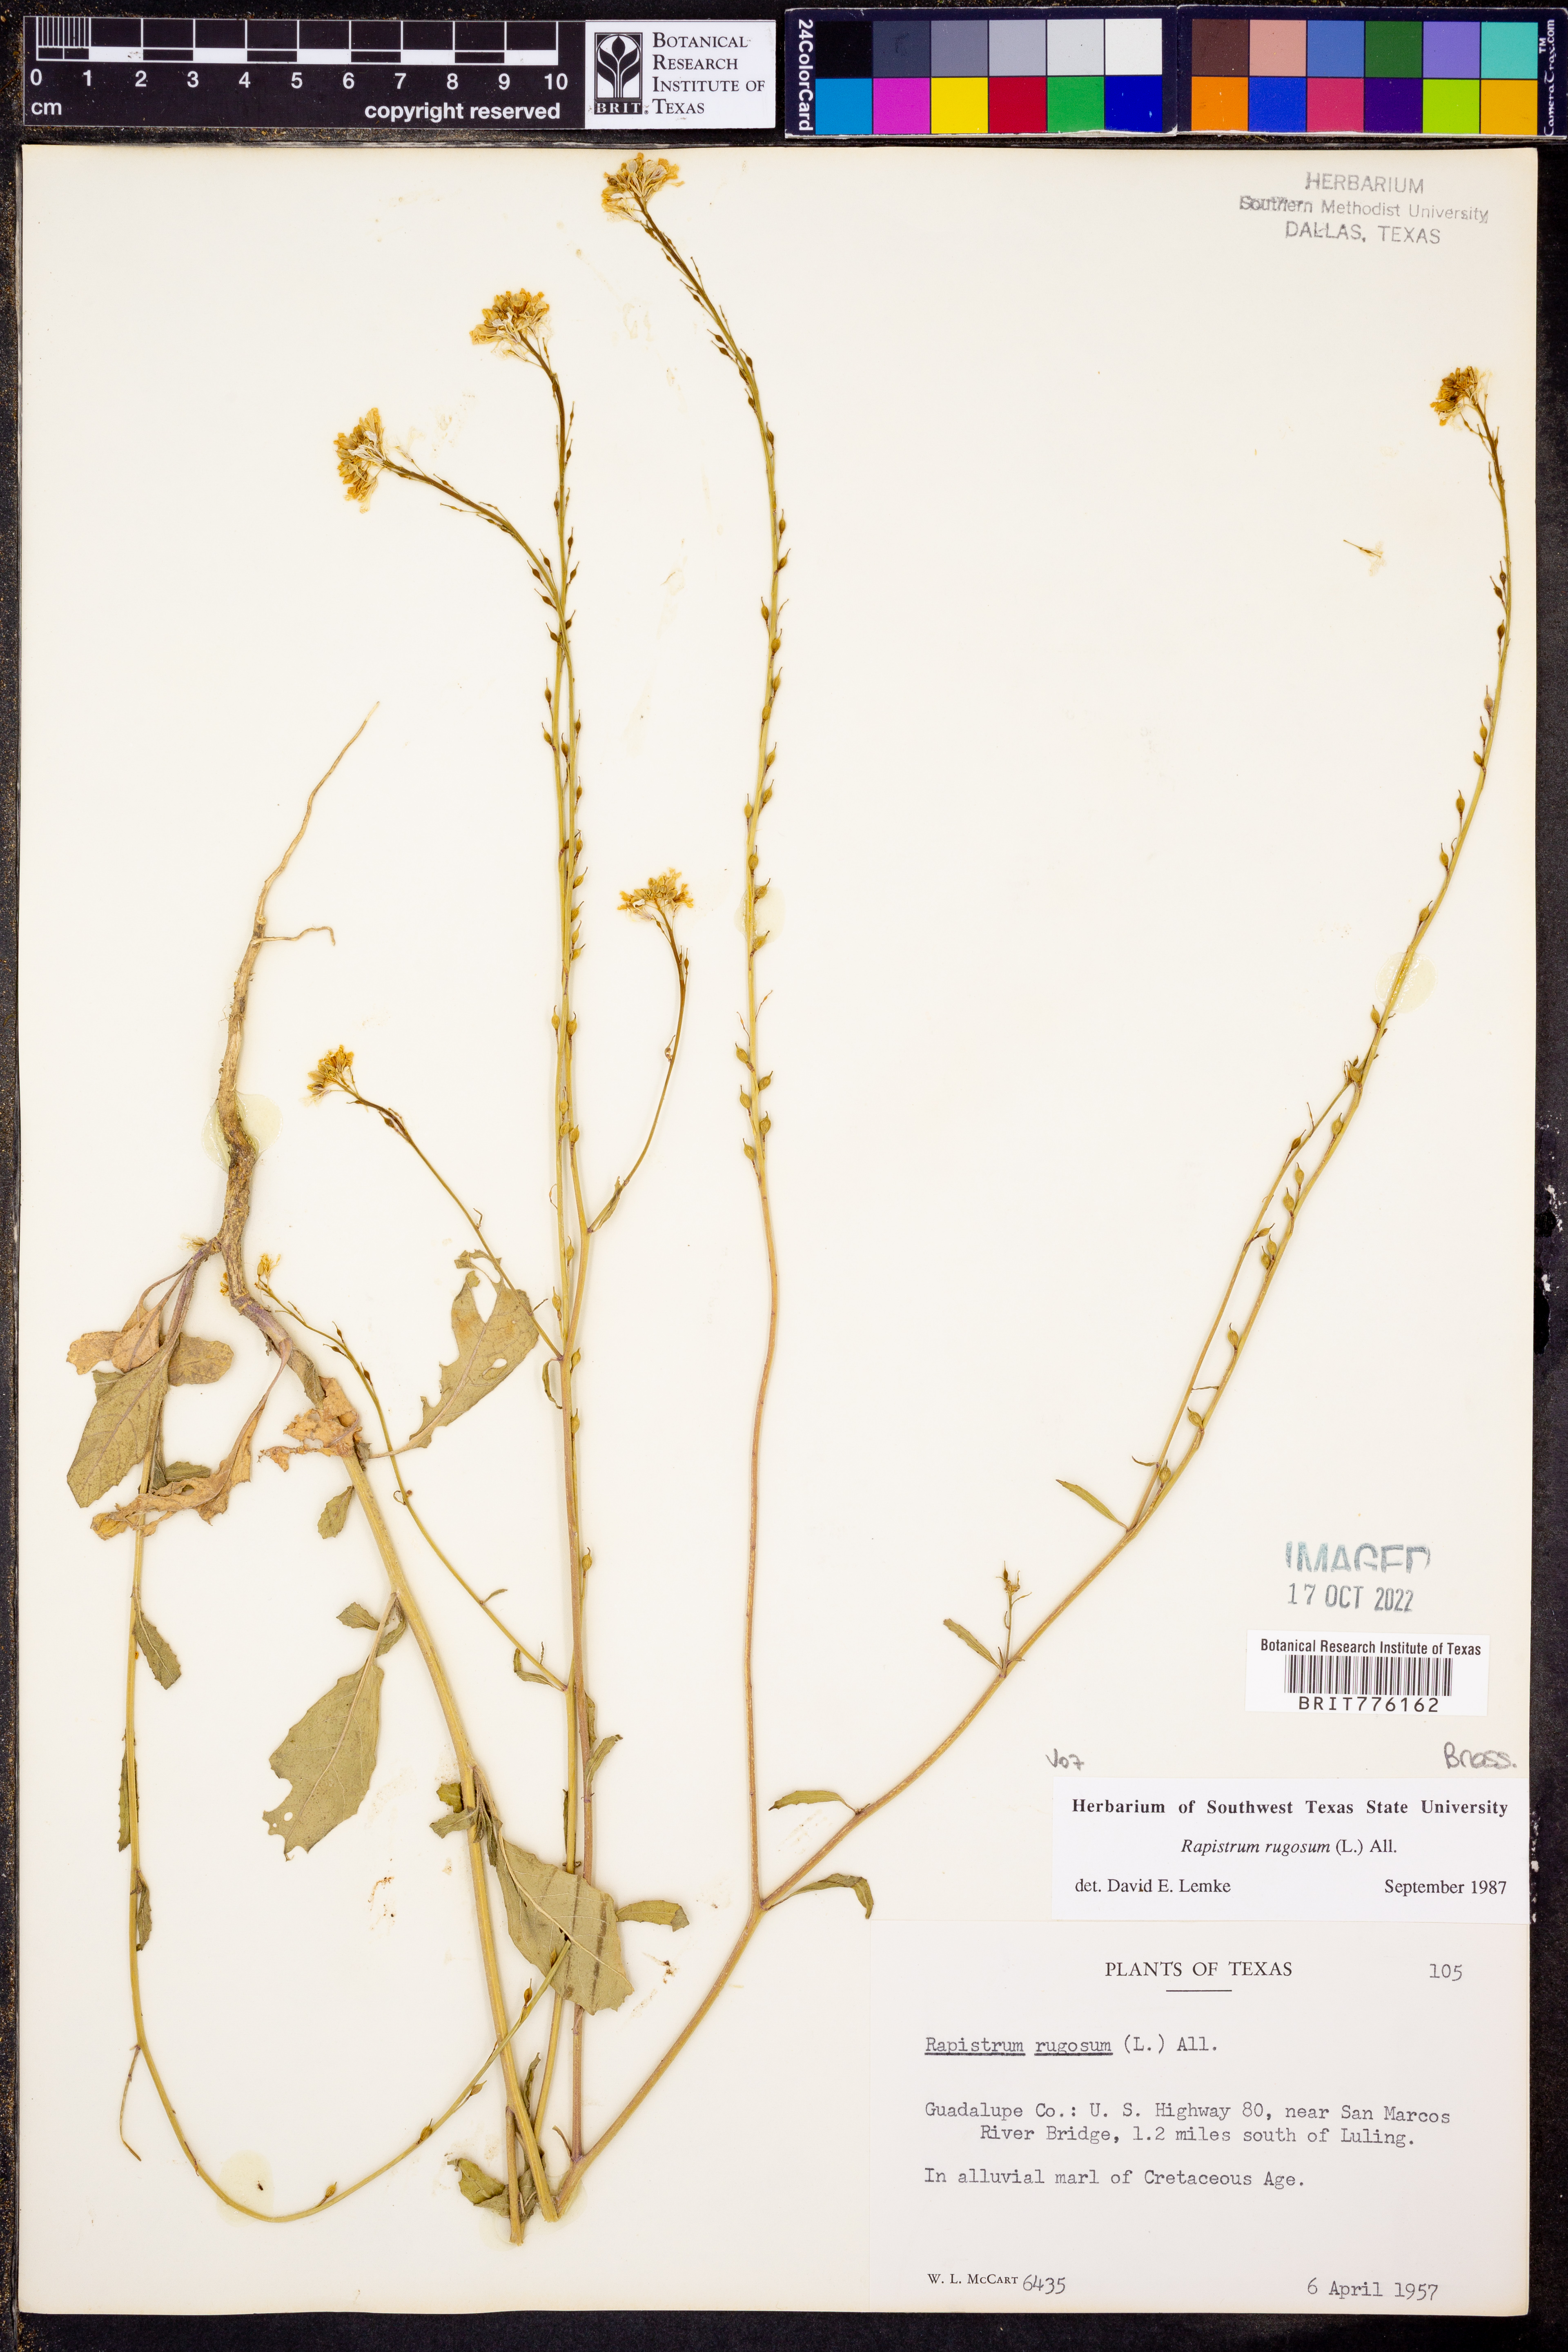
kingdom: Plantae
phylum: Tracheophyta
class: Magnoliopsida
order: Brassicales
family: Brassicaceae
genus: Rapistrum
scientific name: Rapistrum rugosum
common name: Annual bastardcabbage
